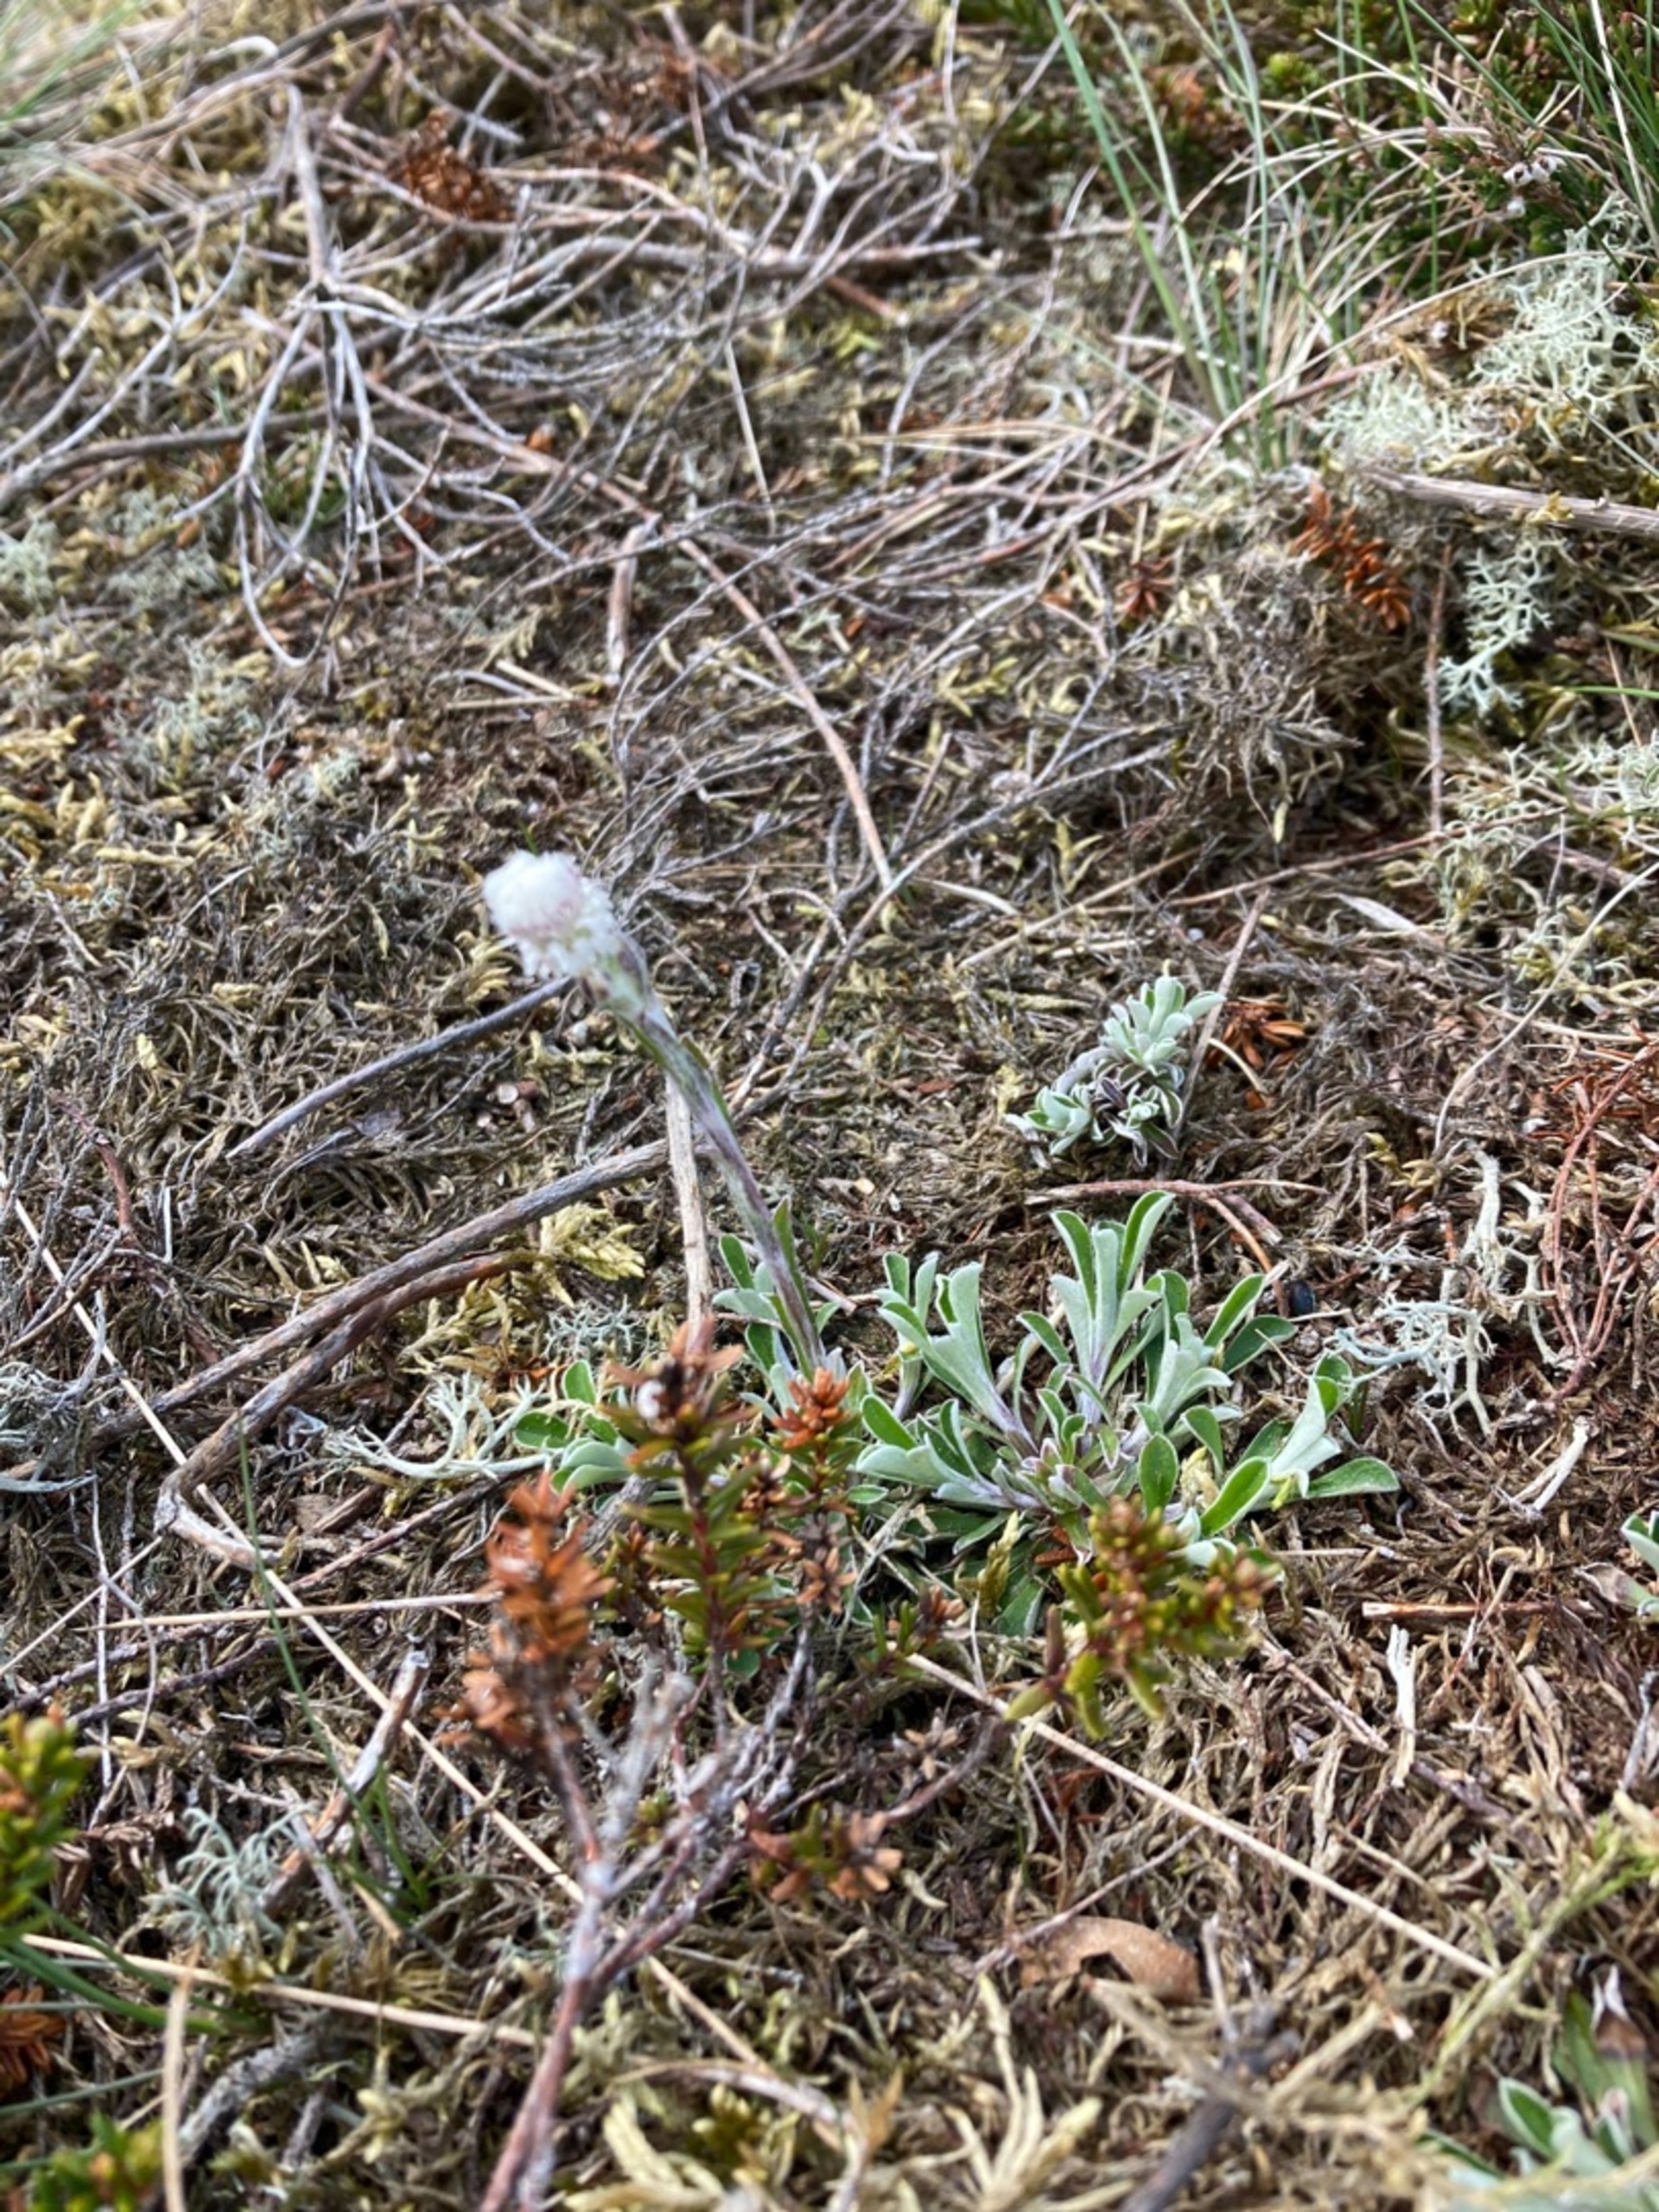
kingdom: Plantae
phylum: Tracheophyta
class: Magnoliopsida
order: Asterales
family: Asteraceae
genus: Antennaria
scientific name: Antennaria dioica
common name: Kattefod
